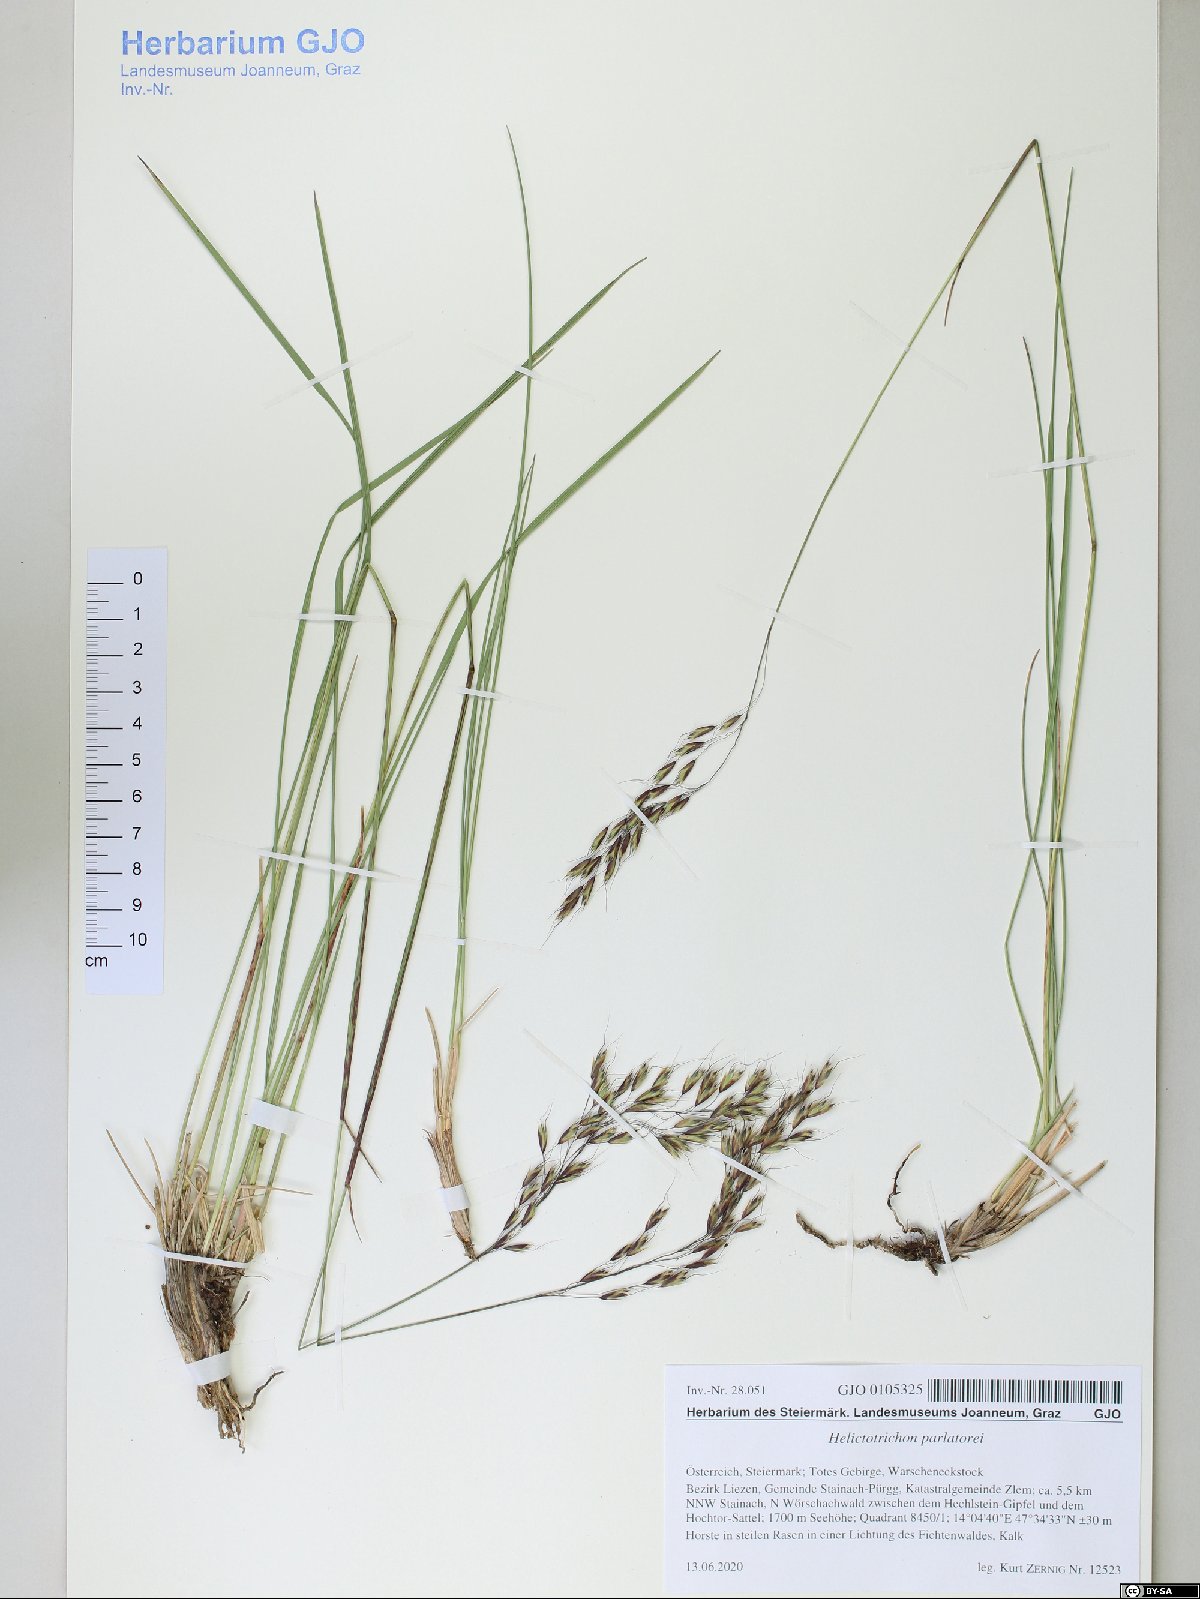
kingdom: Plantae
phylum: Tracheophyta
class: Liliopsida
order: Poales
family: Poaceae
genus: Helictotrichon
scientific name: Helictotrichon parlatorei
